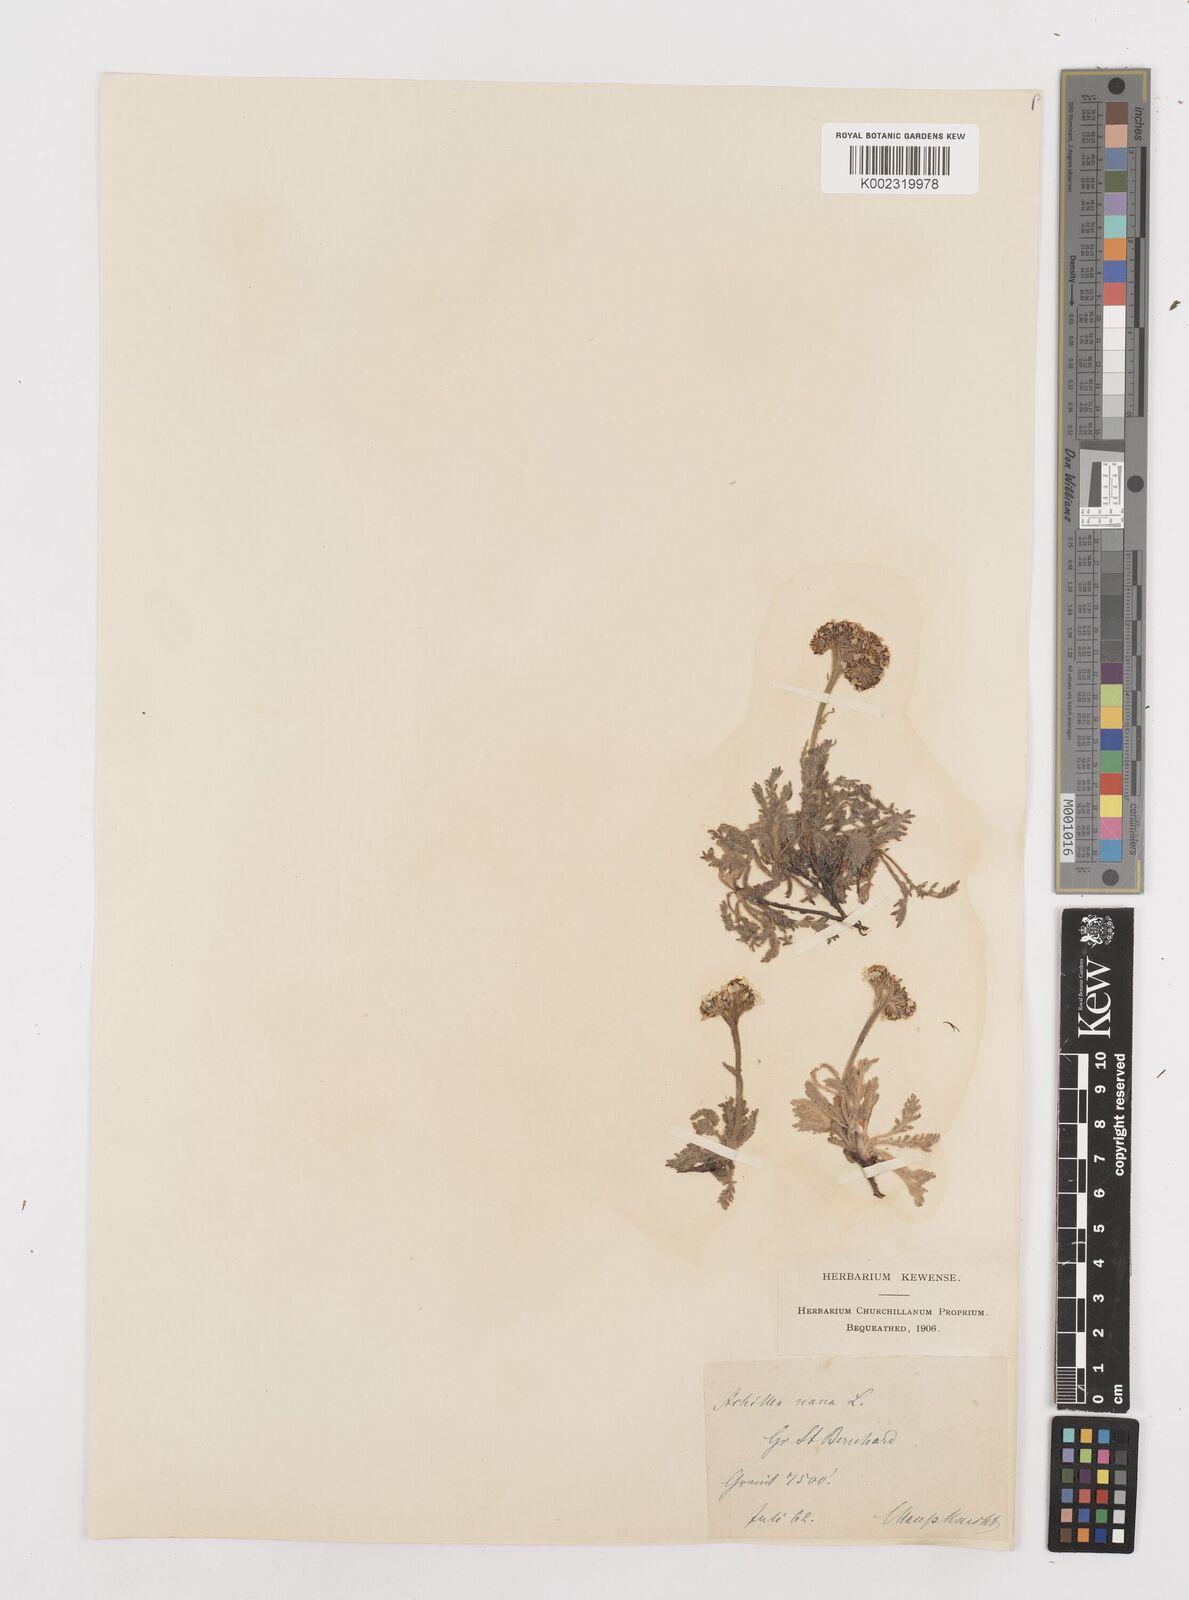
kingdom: Plantae
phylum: Tracheophyta
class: Magnoliopsida
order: Asterales
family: Asteraceae
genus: Achillea
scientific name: Achillea nana
